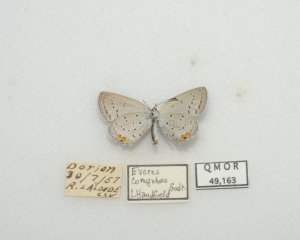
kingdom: Animalia
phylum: Arthropoda
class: Insecta
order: Lepidoptera
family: Lycaenidae
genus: Elkalyce
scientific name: Elkalyce comyntas
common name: Eastern Tailed-Blue
